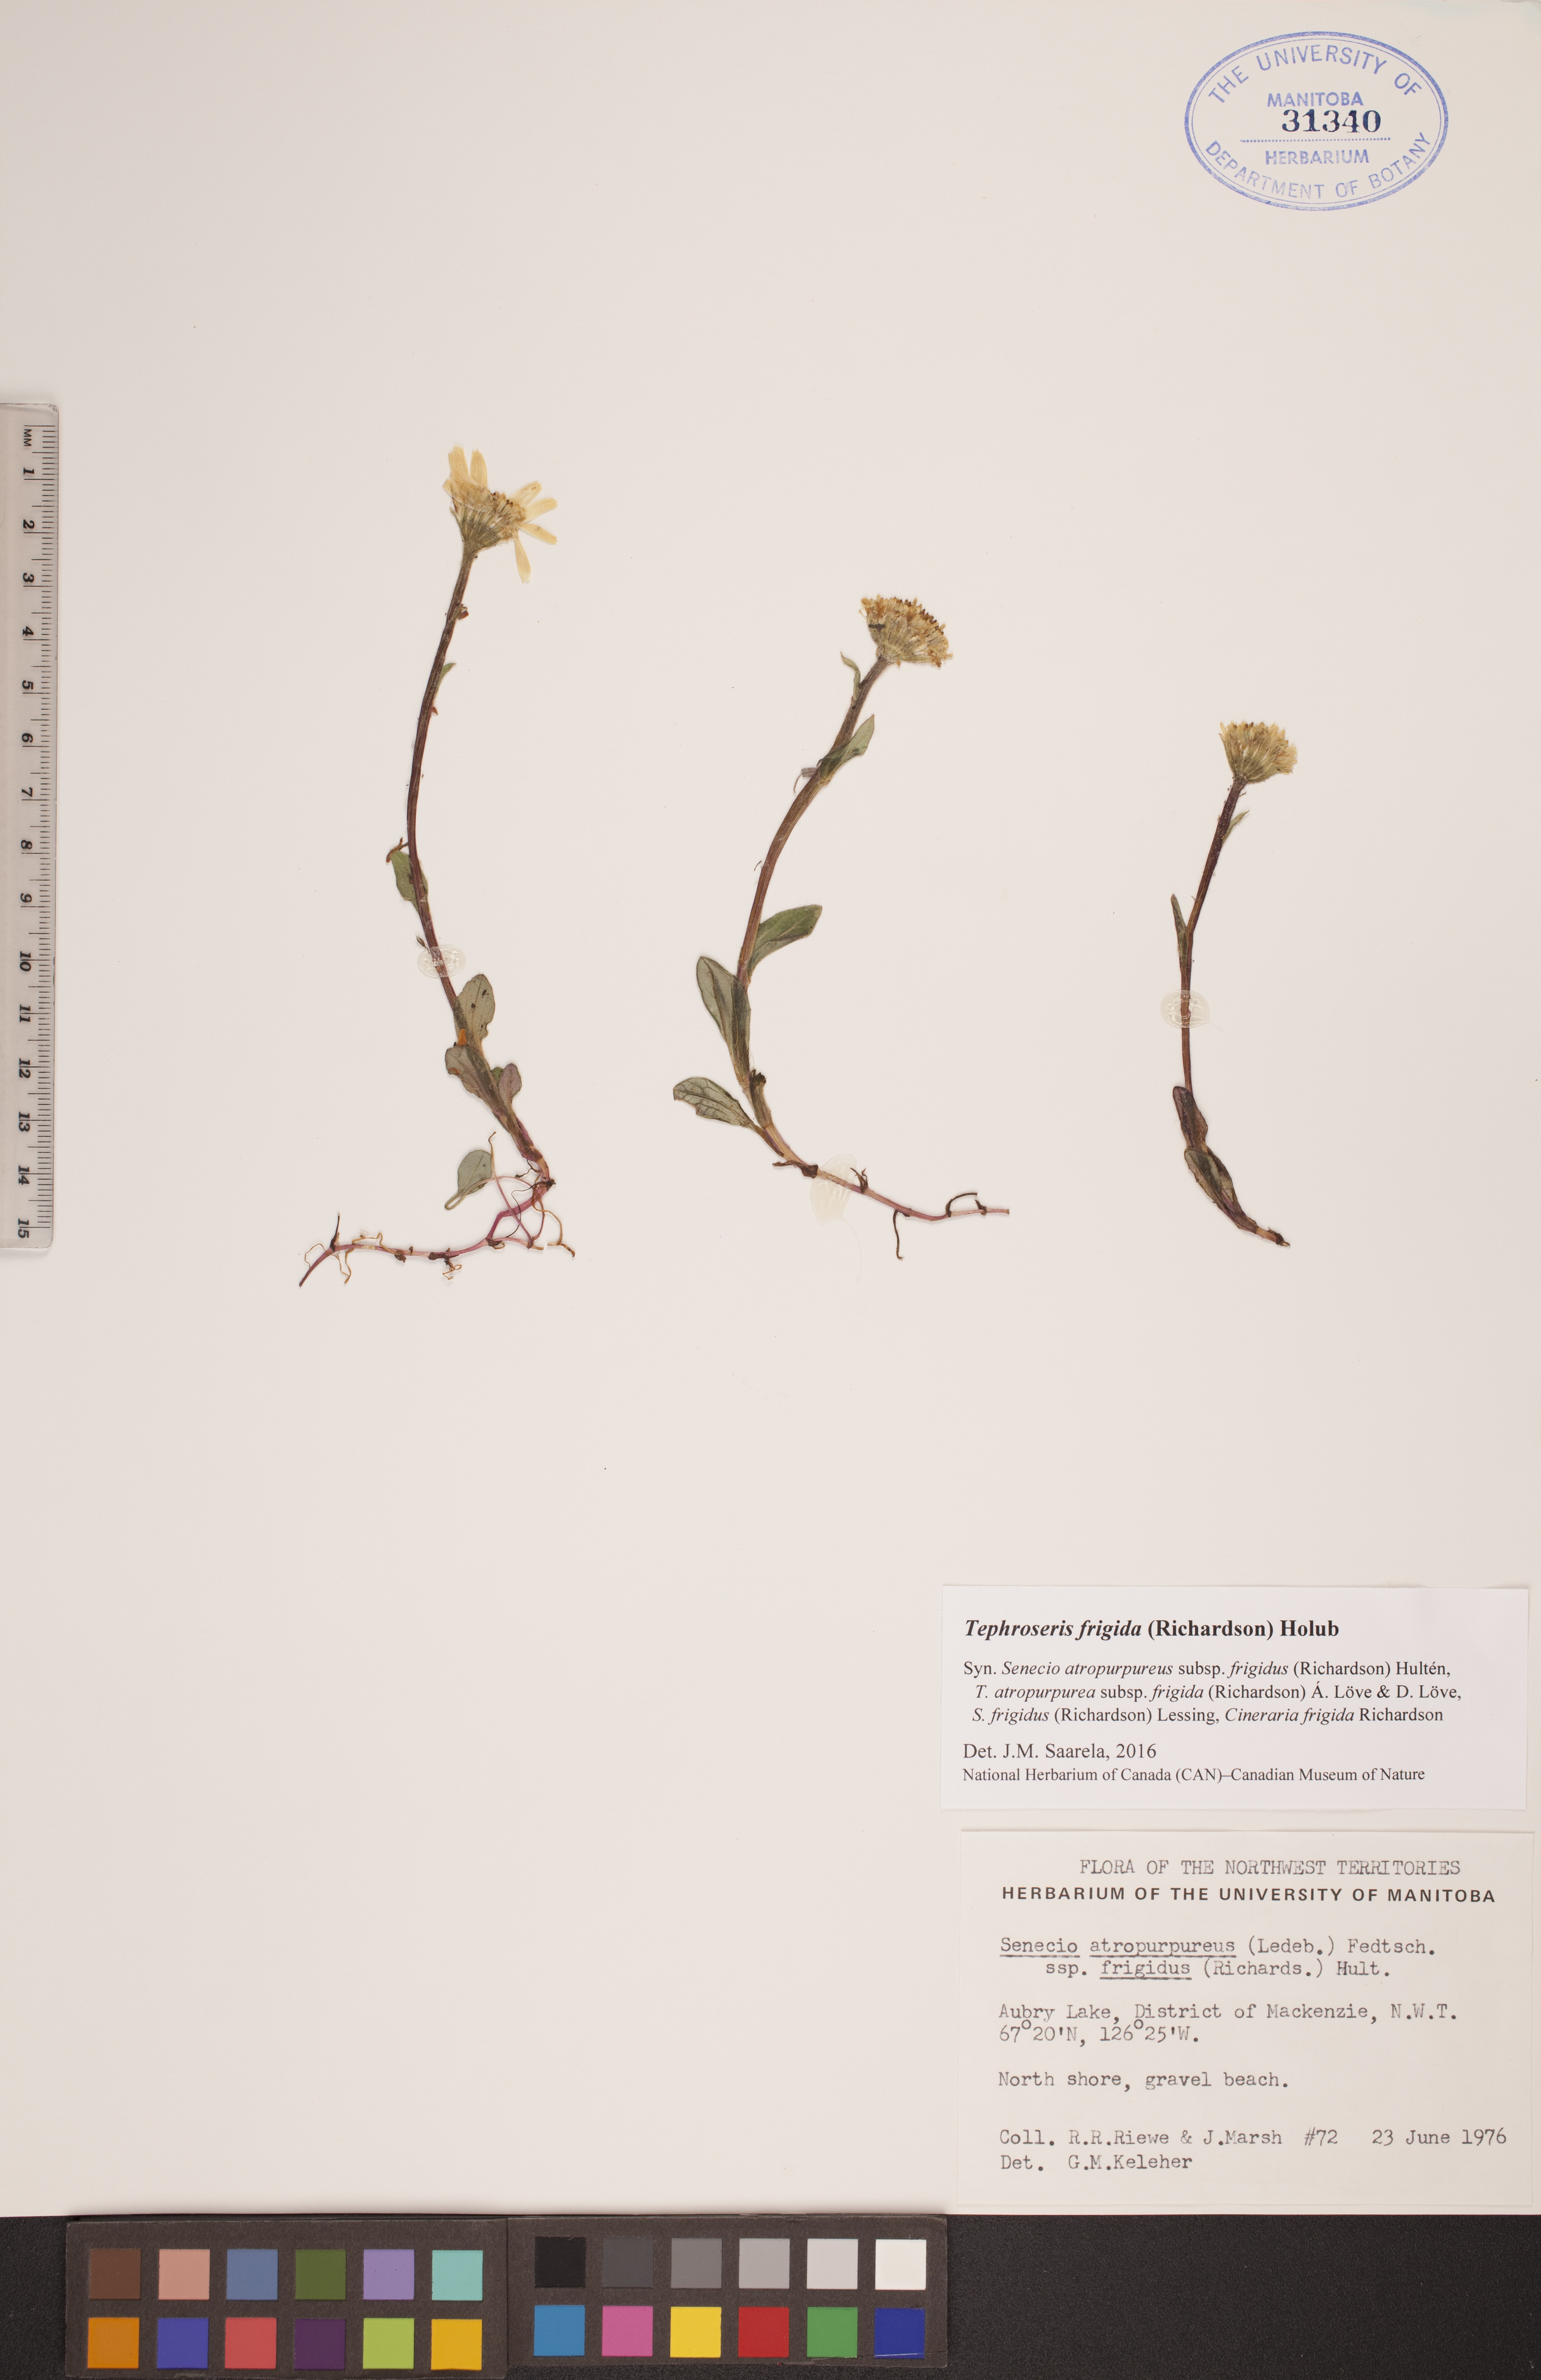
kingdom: Plantae
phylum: Tracheophyta
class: Magnoliopsida
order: Asterales
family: Asteraceae
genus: Tephroseris
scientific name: Tephroseris frigida
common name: Arctic groundsel
